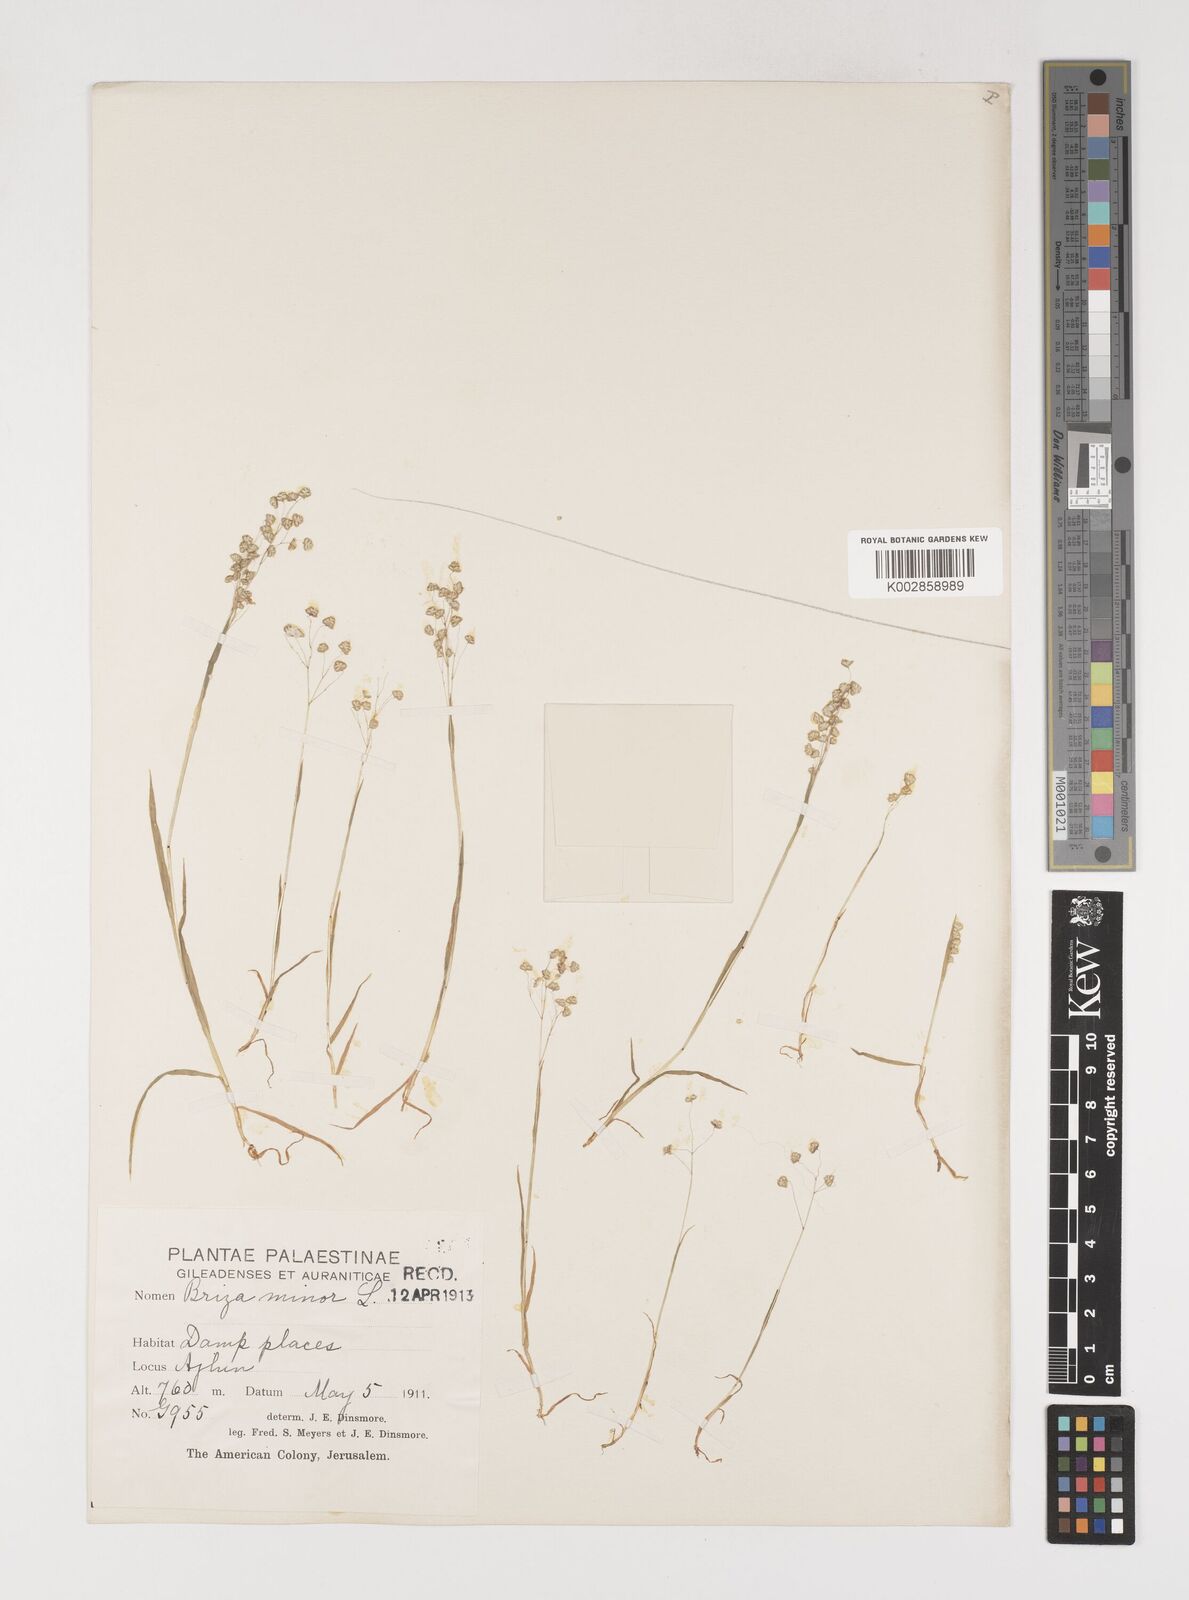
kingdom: Plantae
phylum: Tracheophyta
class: Liliopsida
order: Poales
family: Poaceae
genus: Briza
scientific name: Briza minor
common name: Lesser quaking-grass
